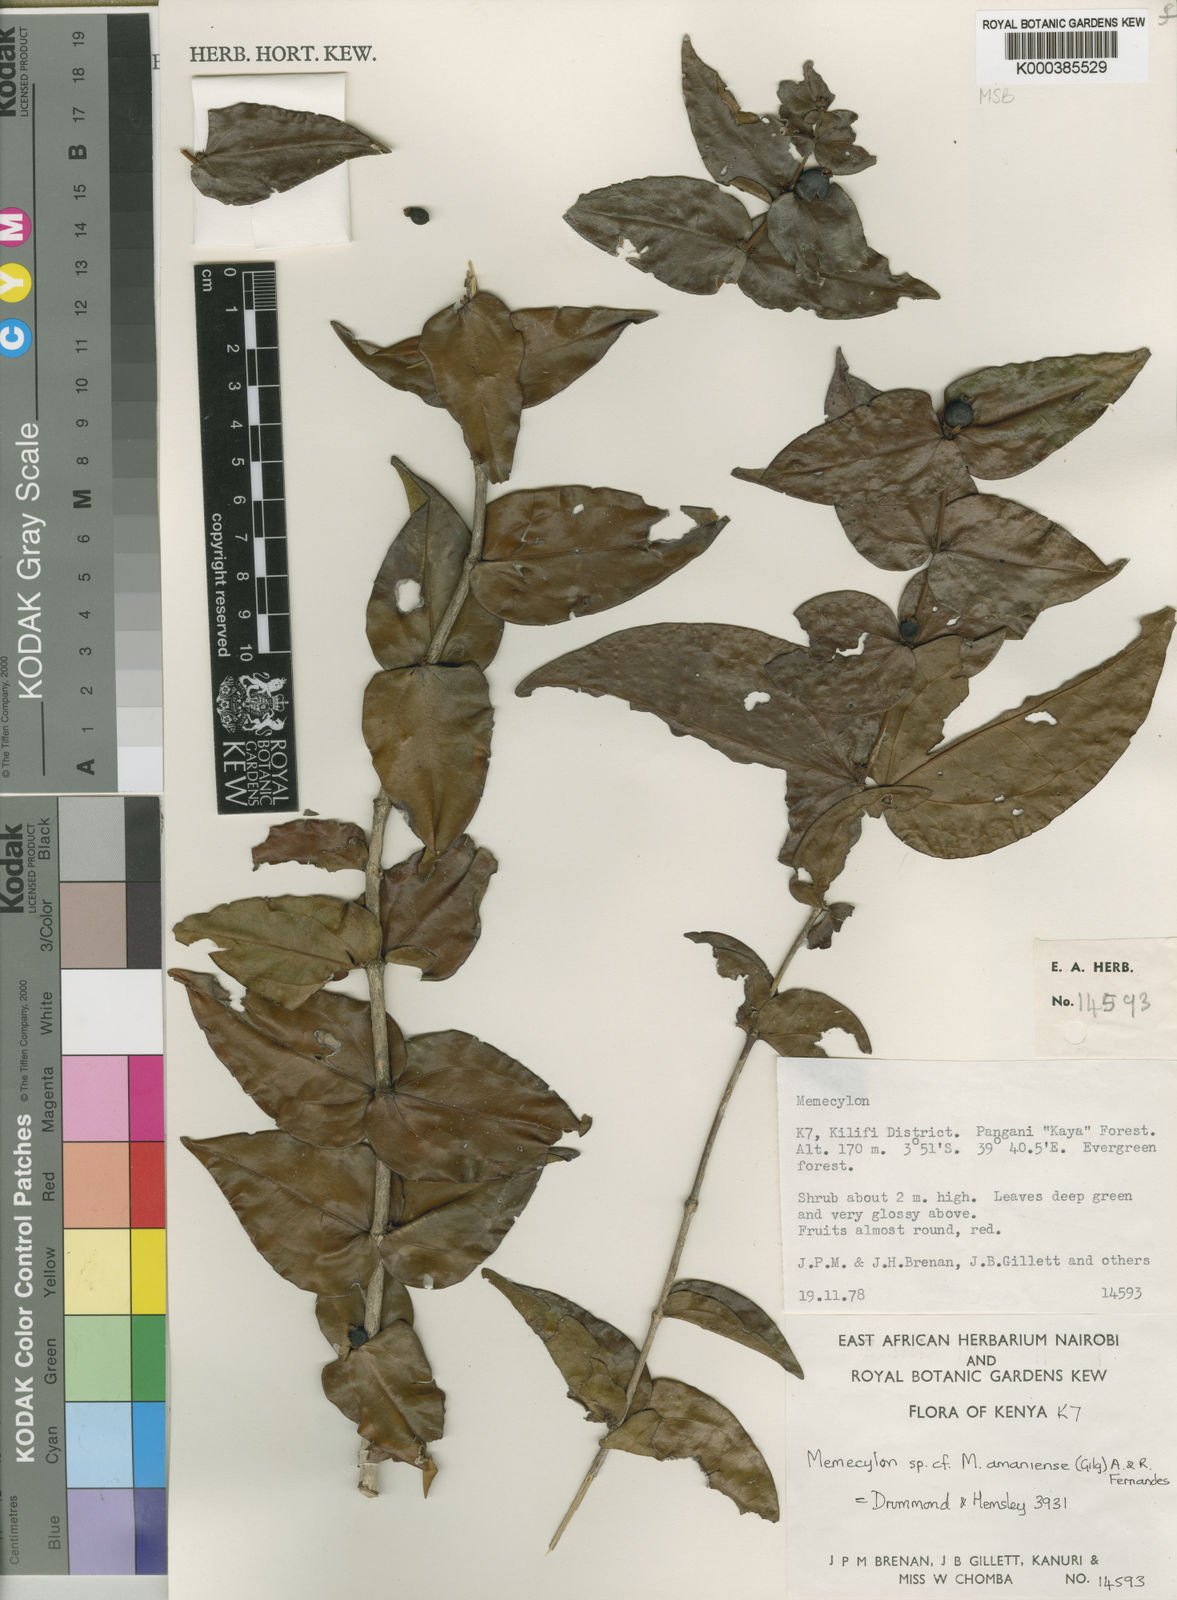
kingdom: Plantae
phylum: Tracheophyta
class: Magnoliopsida
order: Myrtales
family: Melastomataceae
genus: Warneckea
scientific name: Warneckea amaniensis
